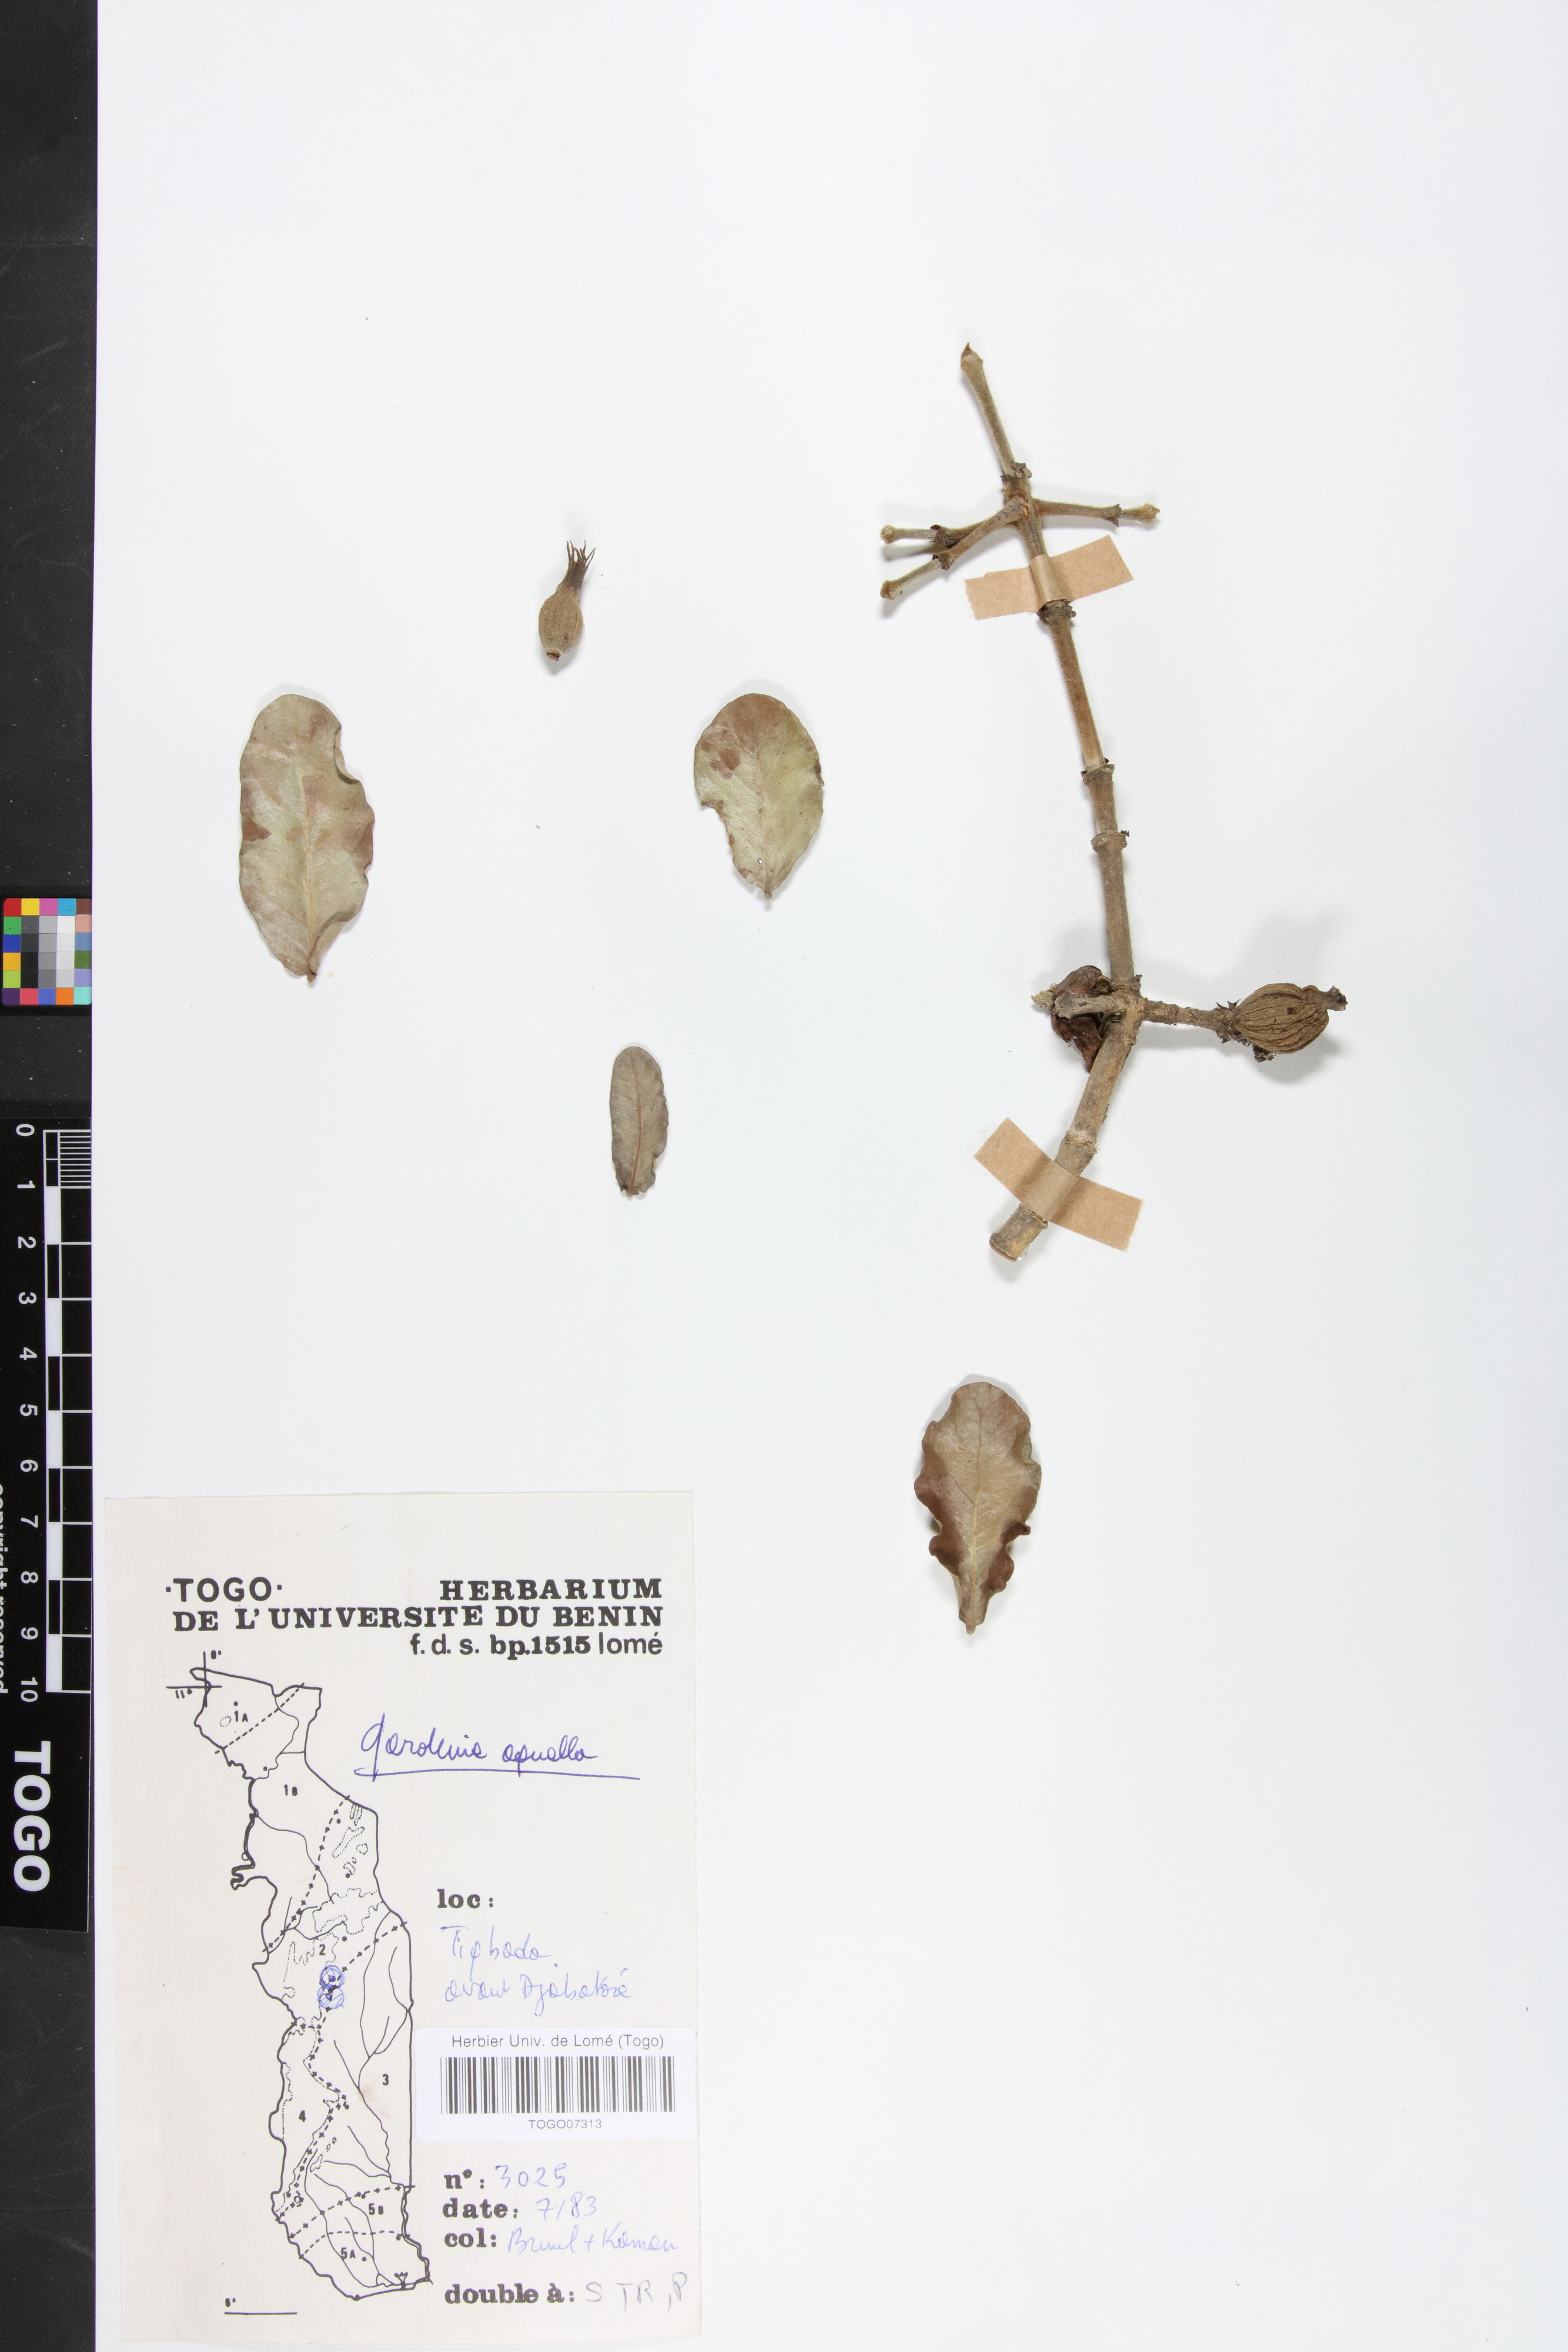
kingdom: Plantae
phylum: Tracheophyta
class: Magnoliopsida
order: Gentianales
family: Rubiaceae
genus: Gardenia
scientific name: Gardenia aqualla
